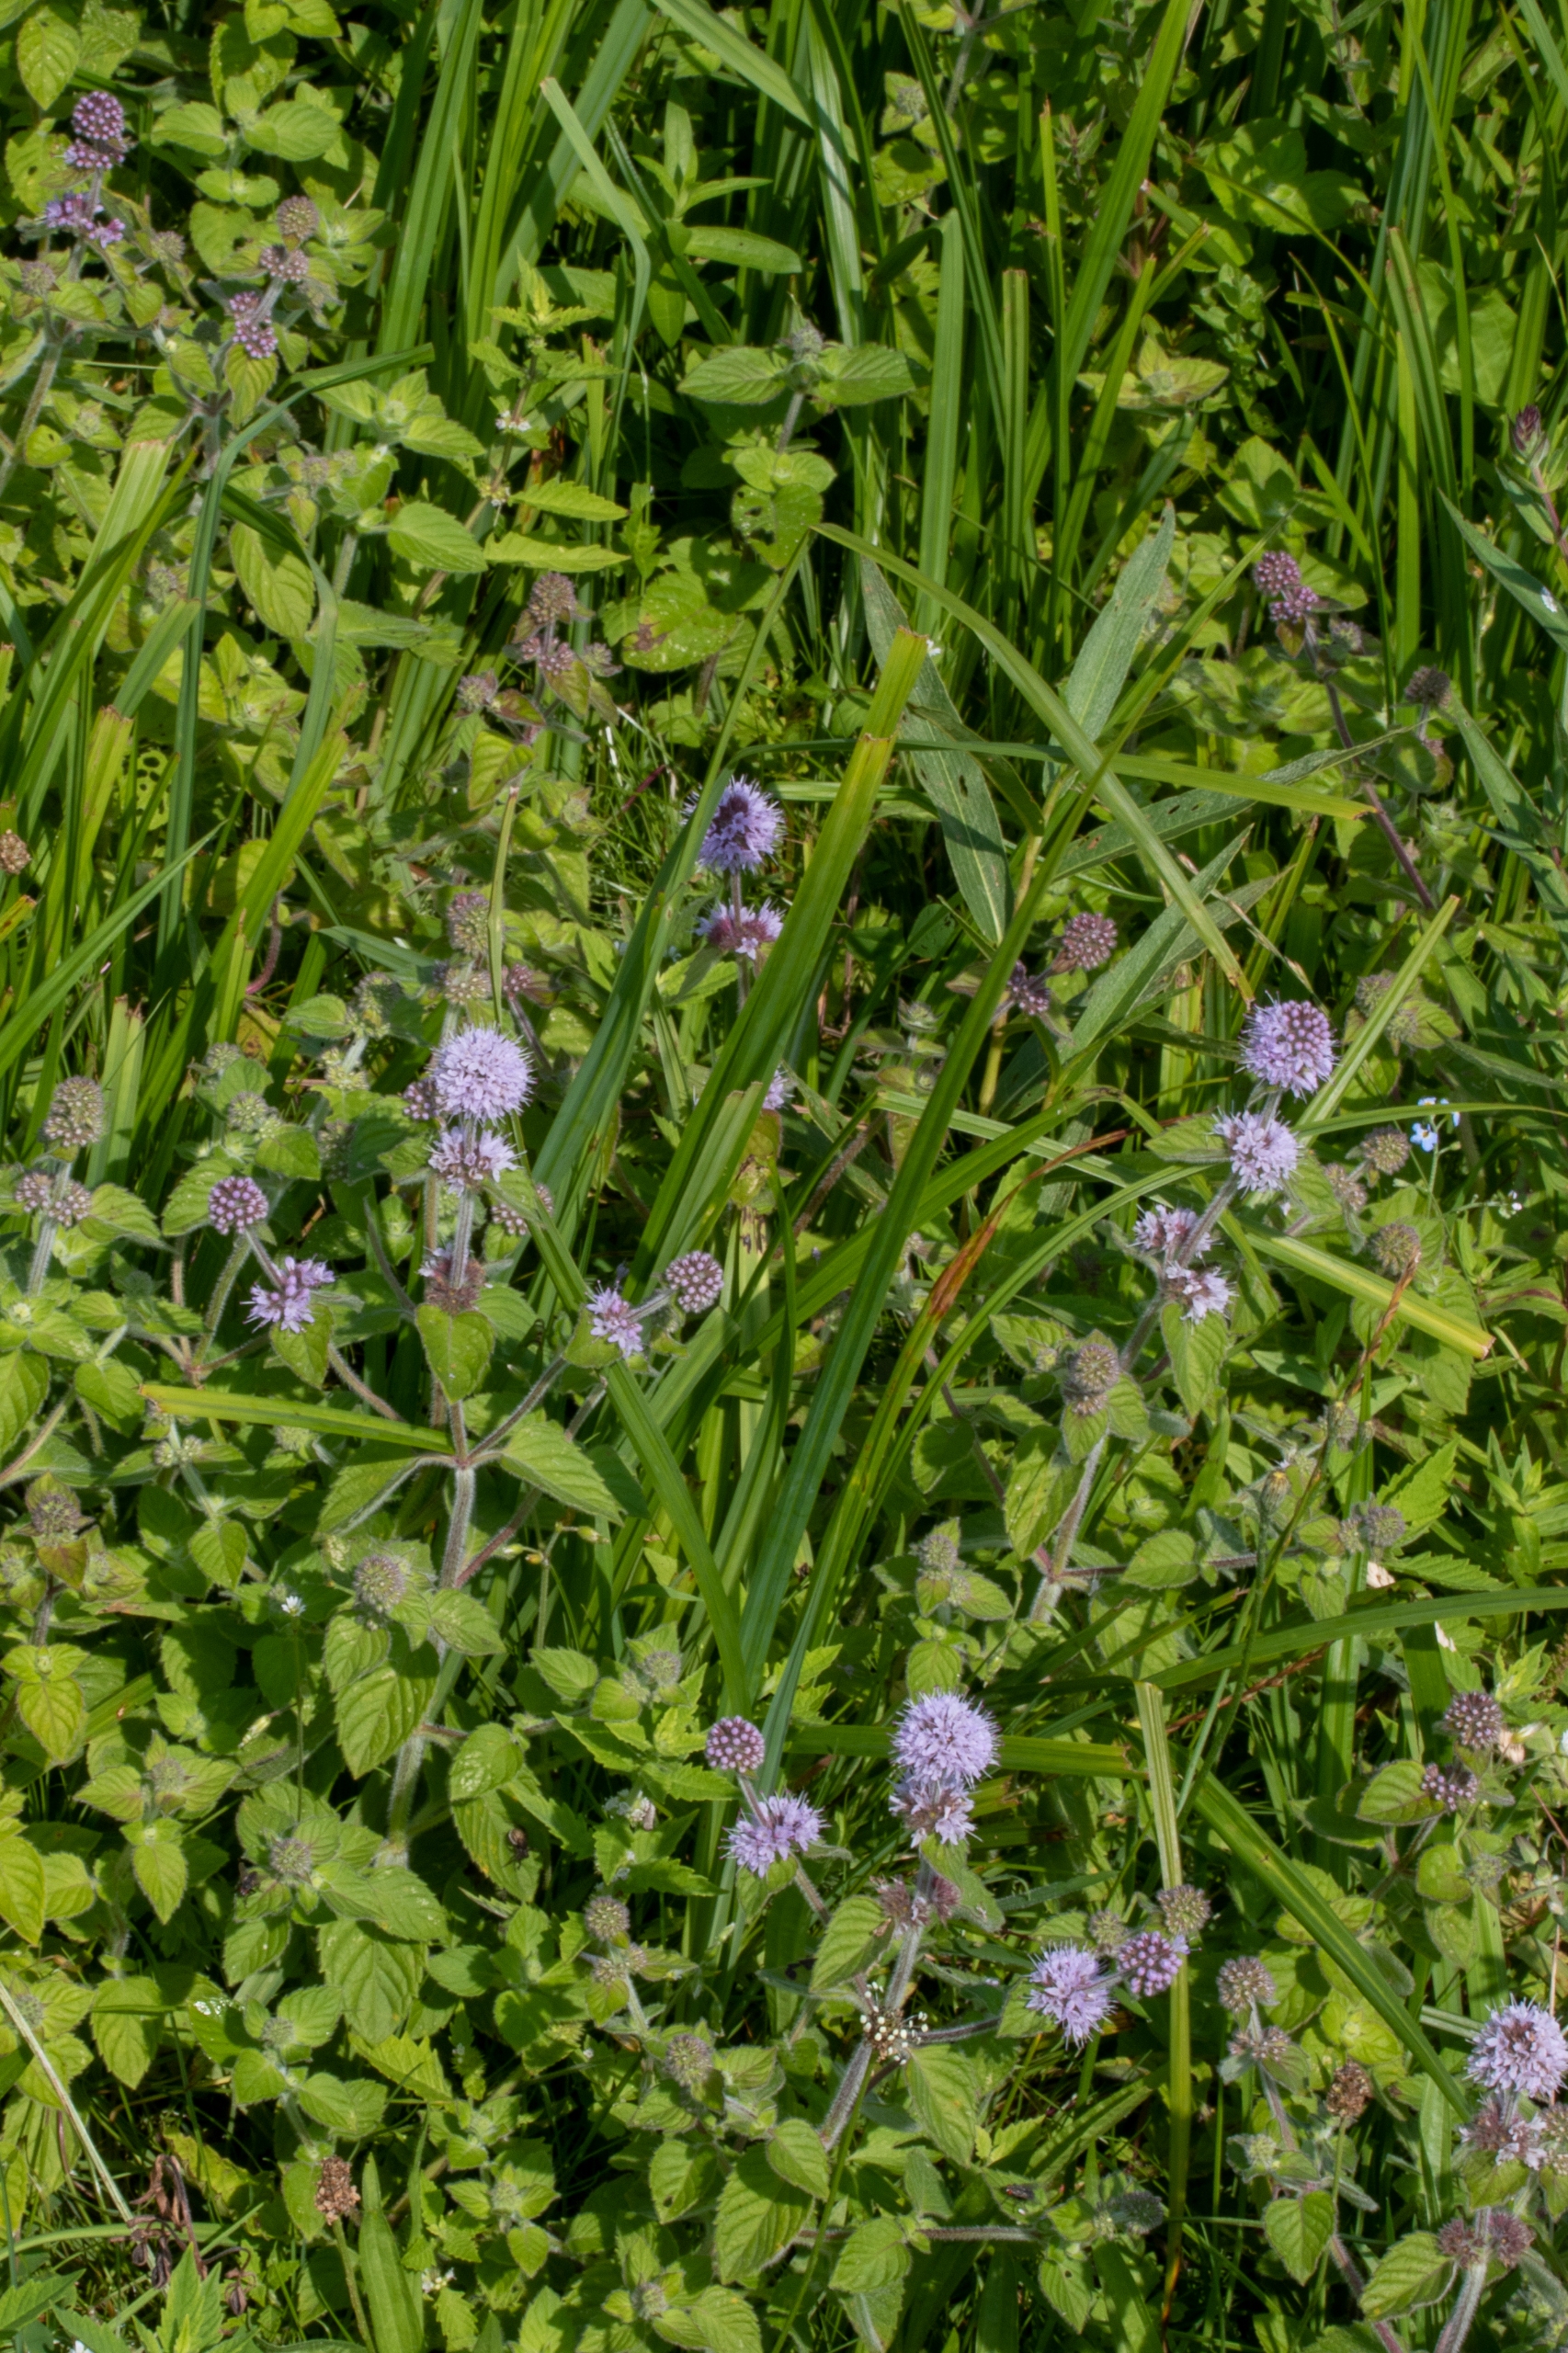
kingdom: Plantae
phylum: Tracheophyta
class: Magnoliopsida
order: Lamiales
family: Lamiaceae
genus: Mentha
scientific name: Mentha aquatica
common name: Vand-mynte
